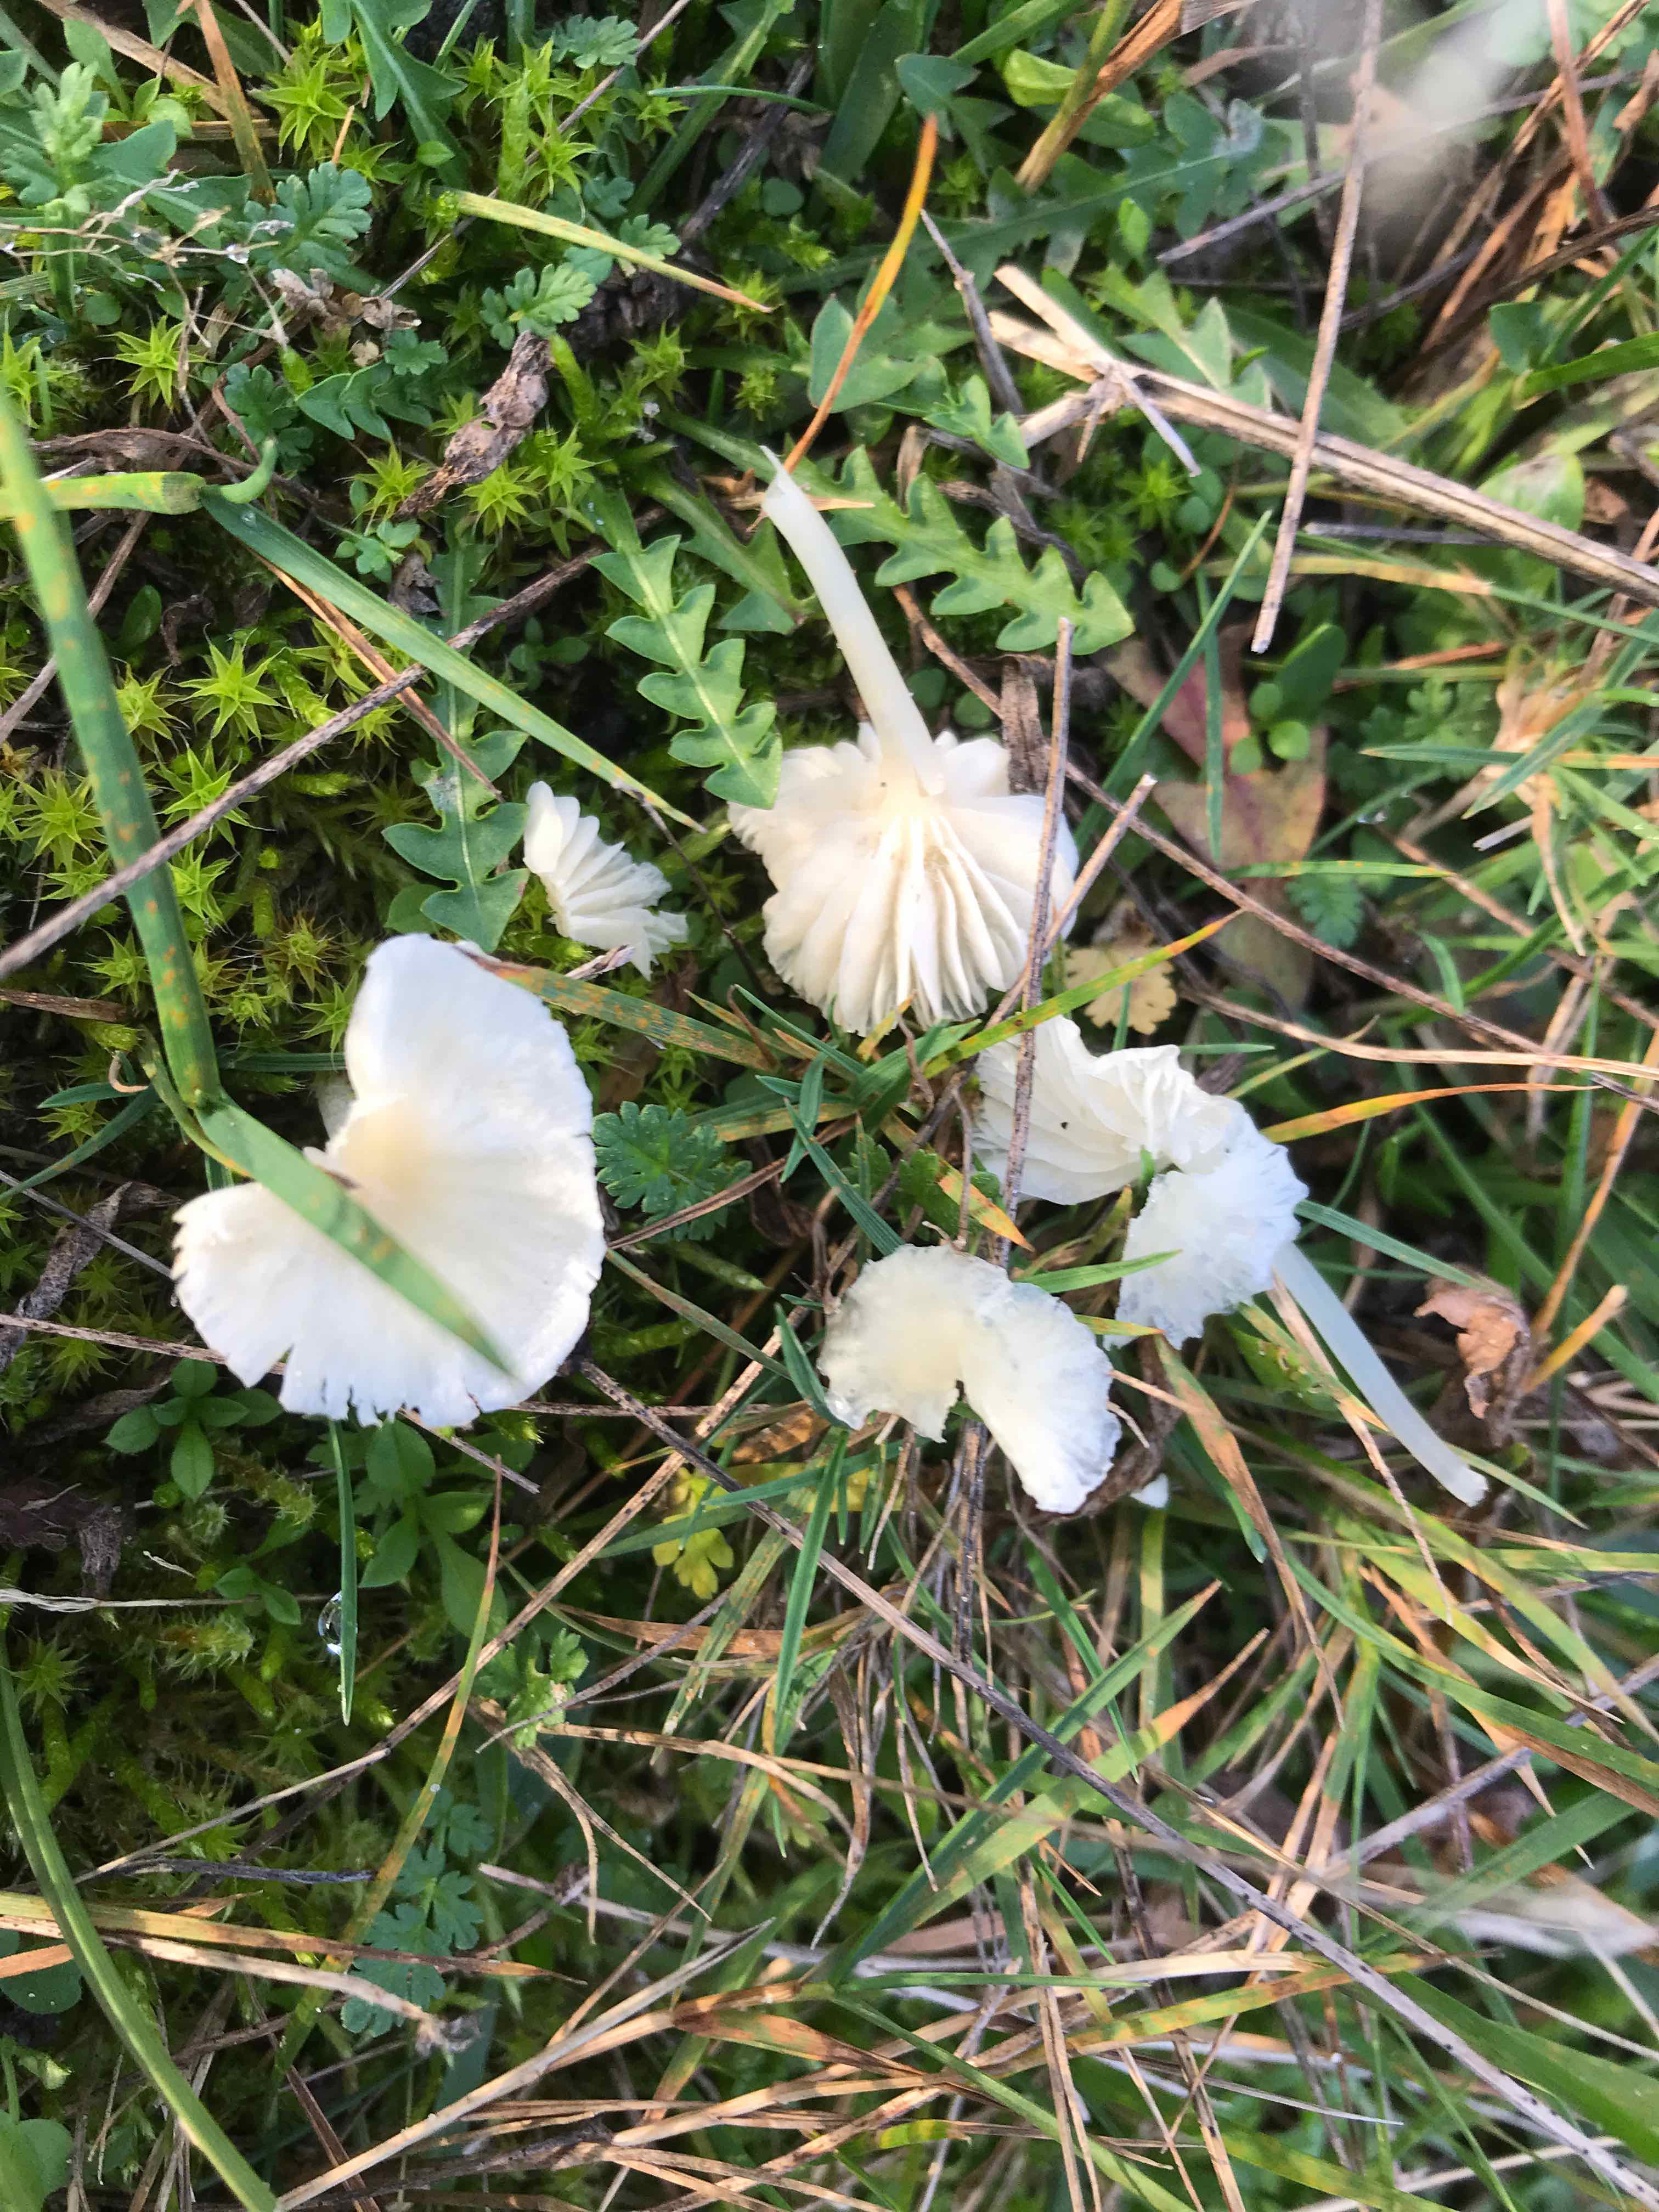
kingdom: Fungi
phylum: Basidiomycota
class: Agaricomycetes
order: Agaricales
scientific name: Agaricales
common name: champignonordenen
